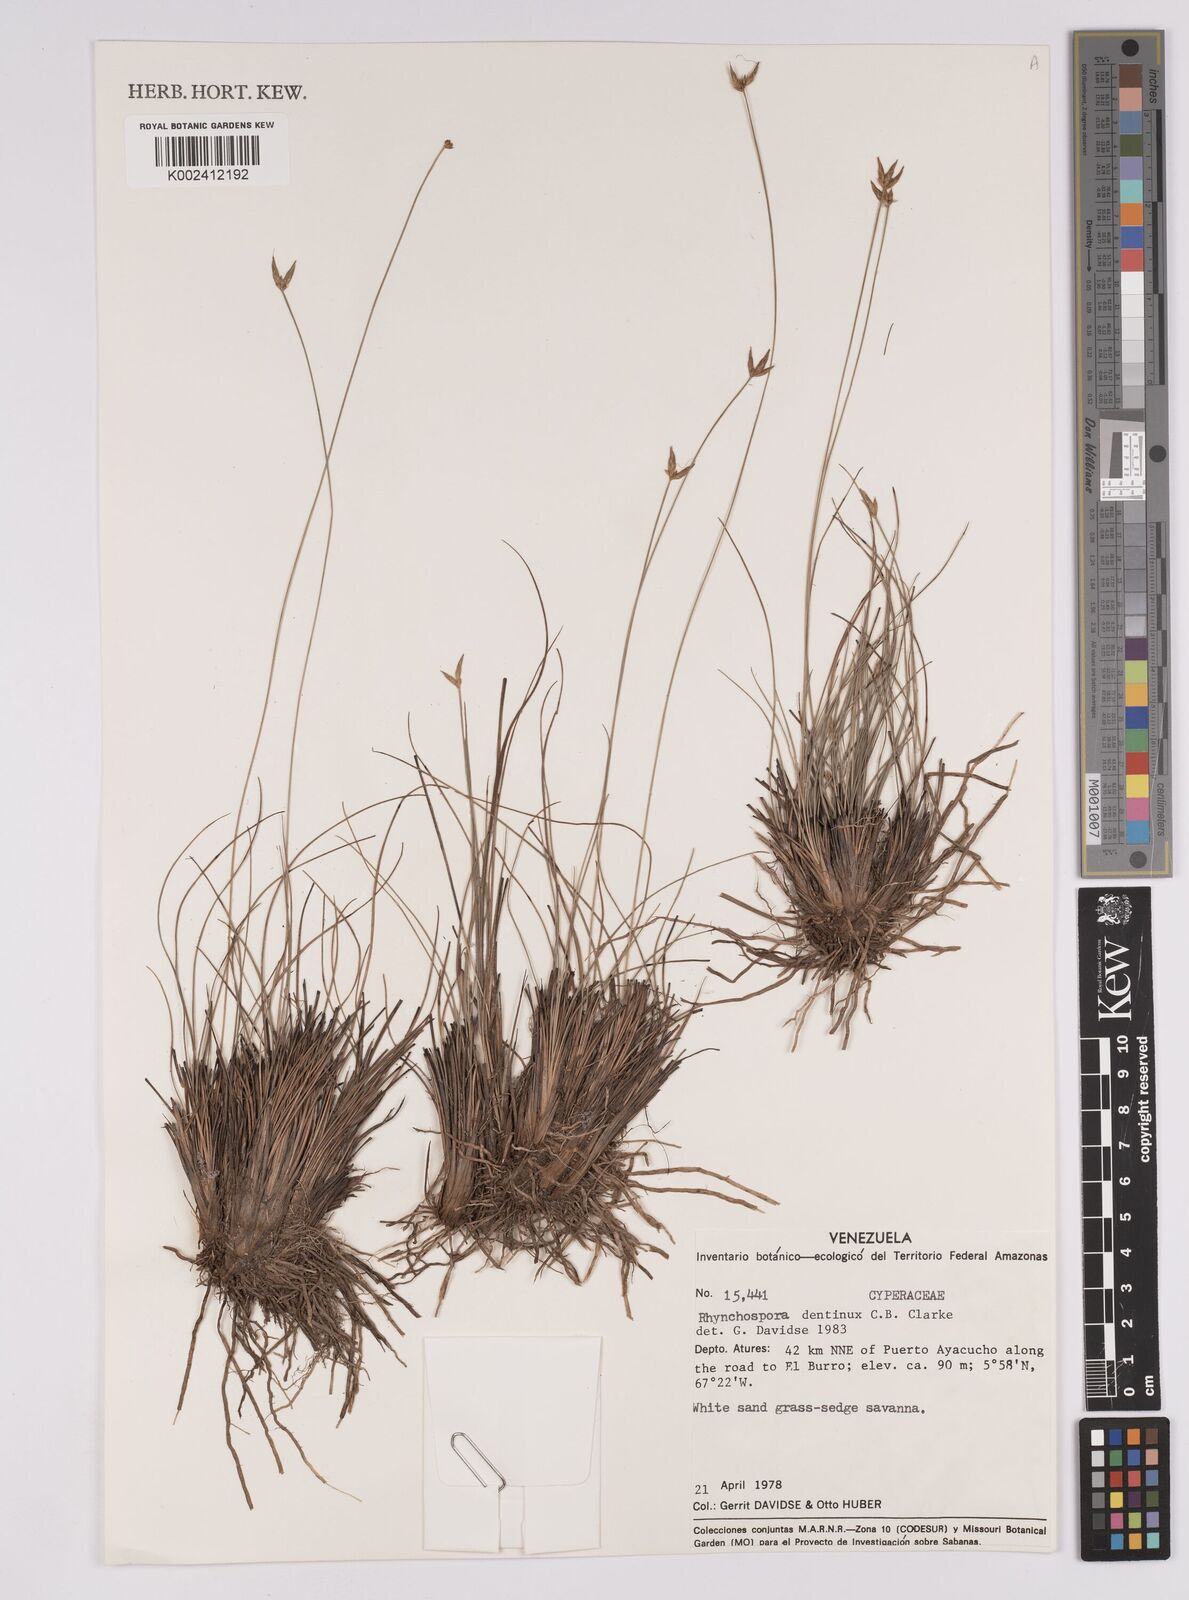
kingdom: Plantae
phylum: Tracheophyta
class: Liliopsida
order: Poales
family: Cyperaceae
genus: Rhynchospora
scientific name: Rhynchospora dentinux
